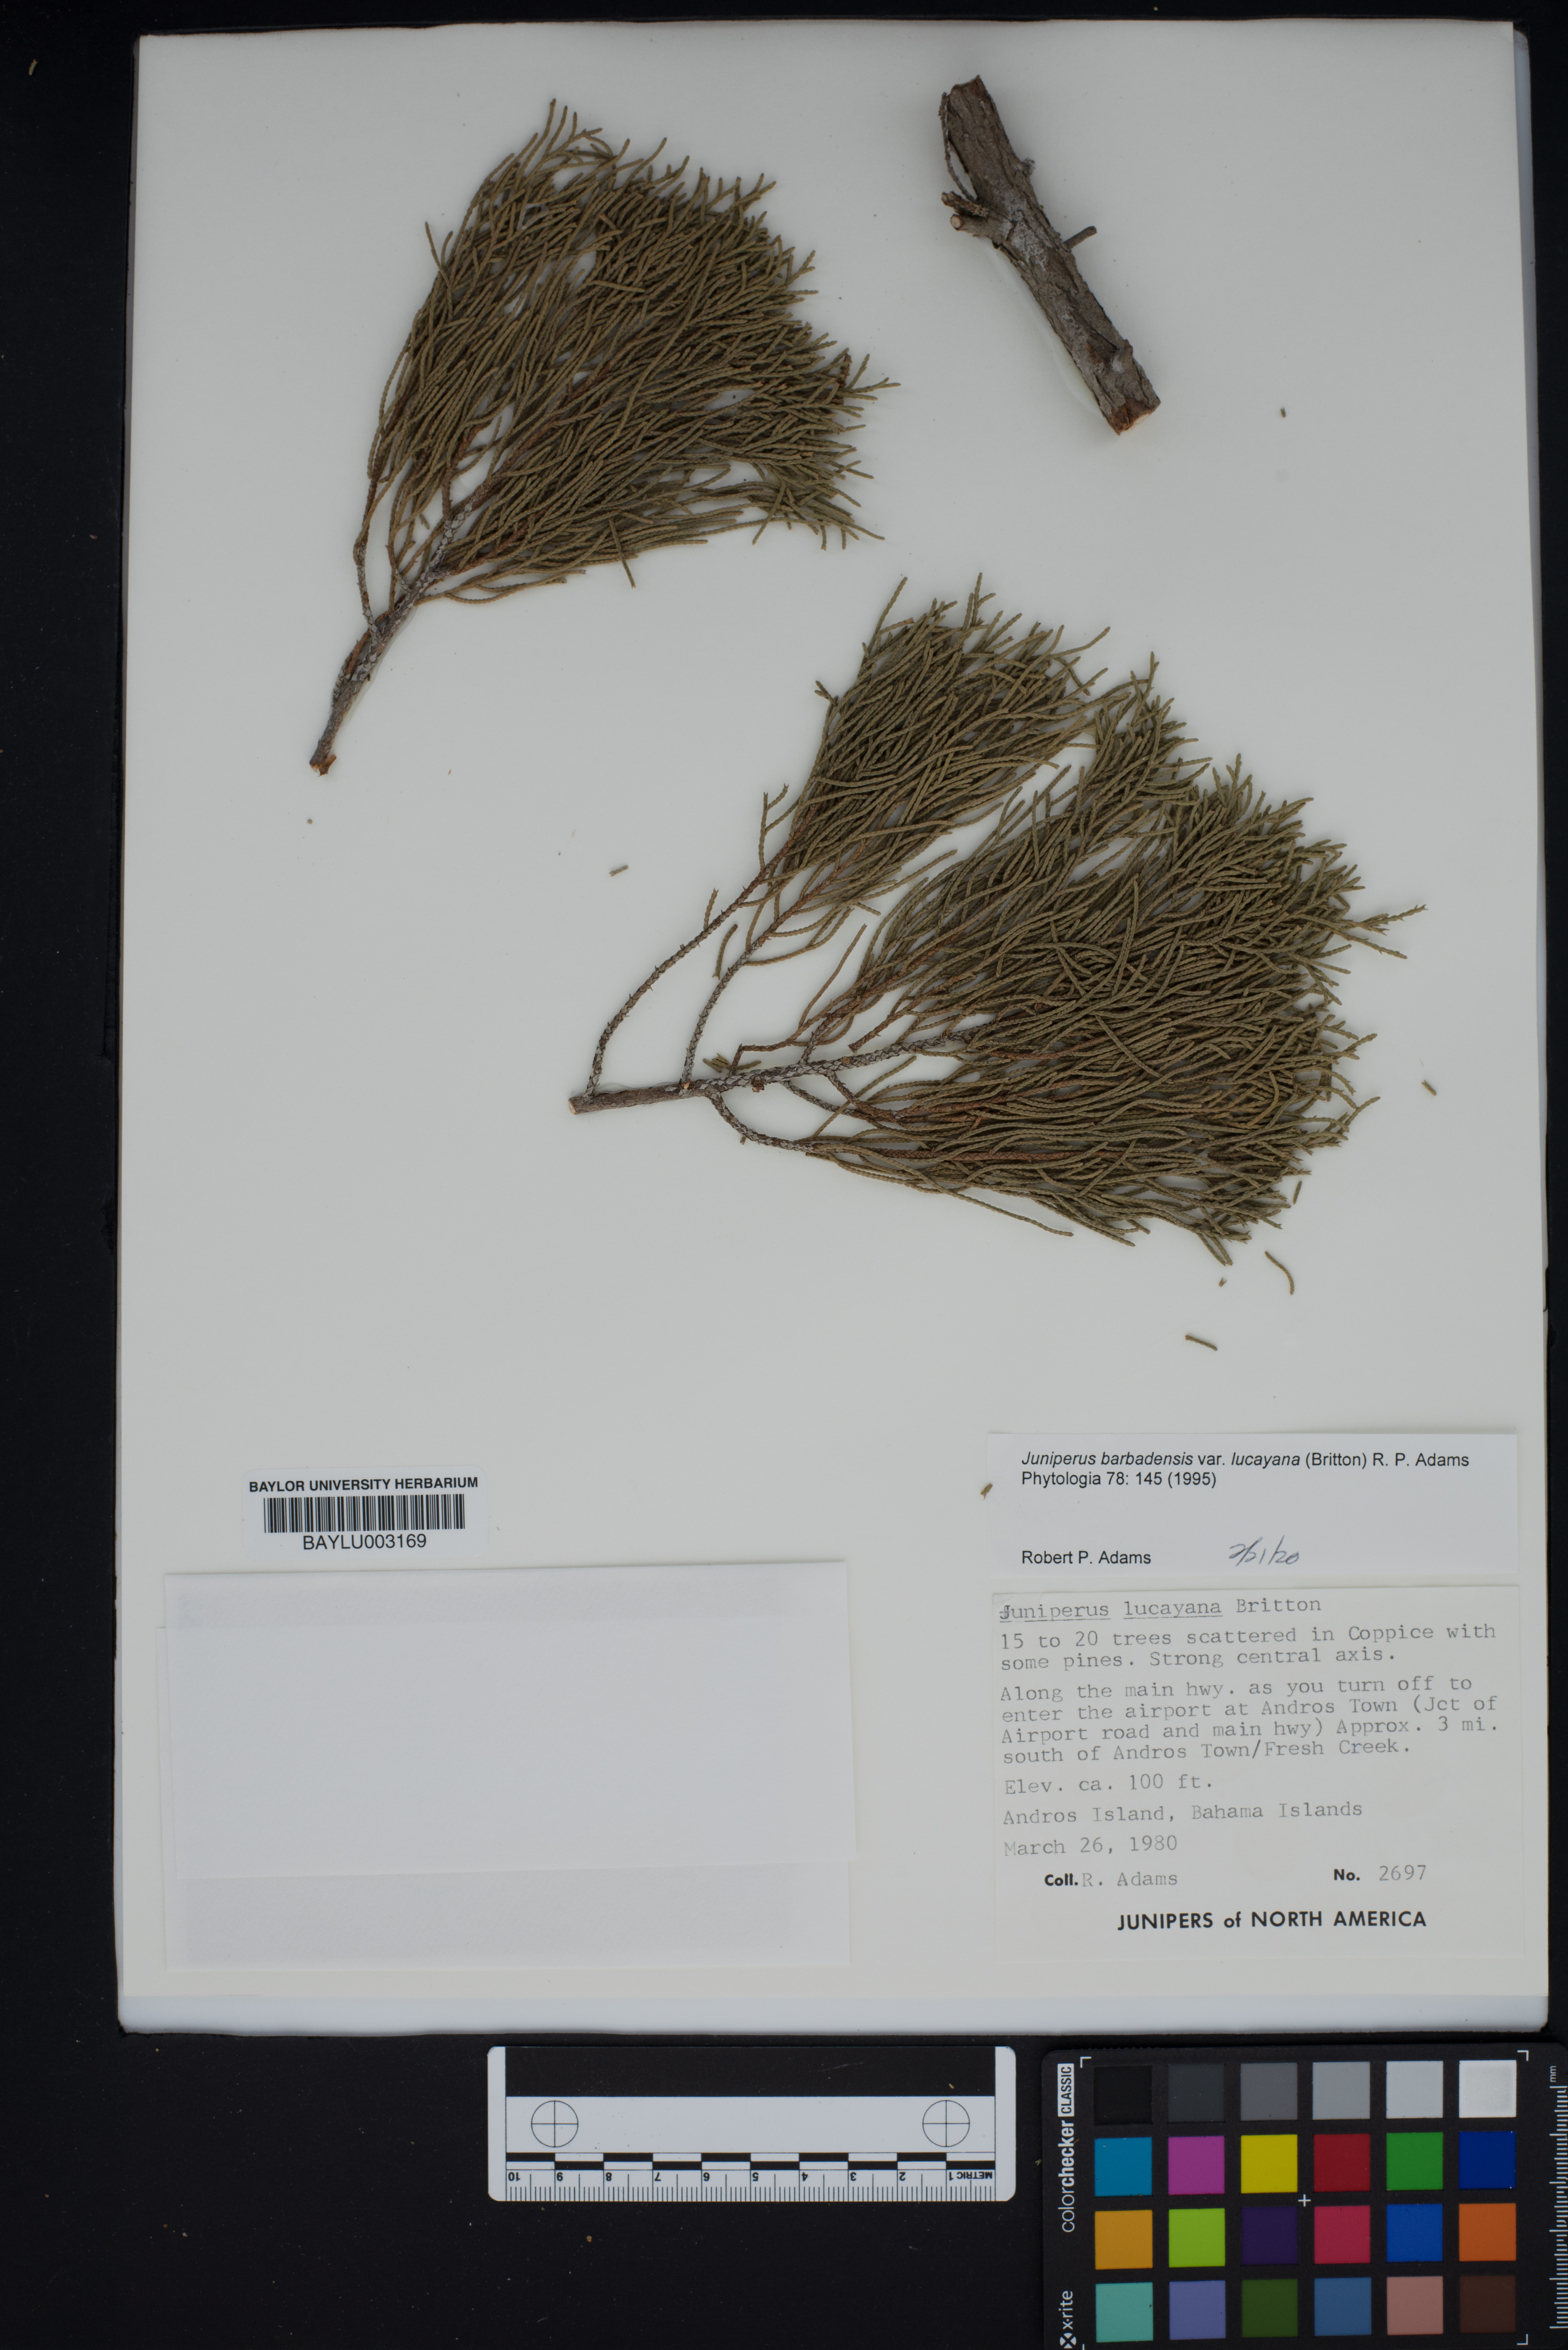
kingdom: Plantae
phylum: Tracheophyta
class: Pinopsida
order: Pinales
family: Cupressaceae
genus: Juniperus
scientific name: Juniperus barbadensis
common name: West indies juniper
